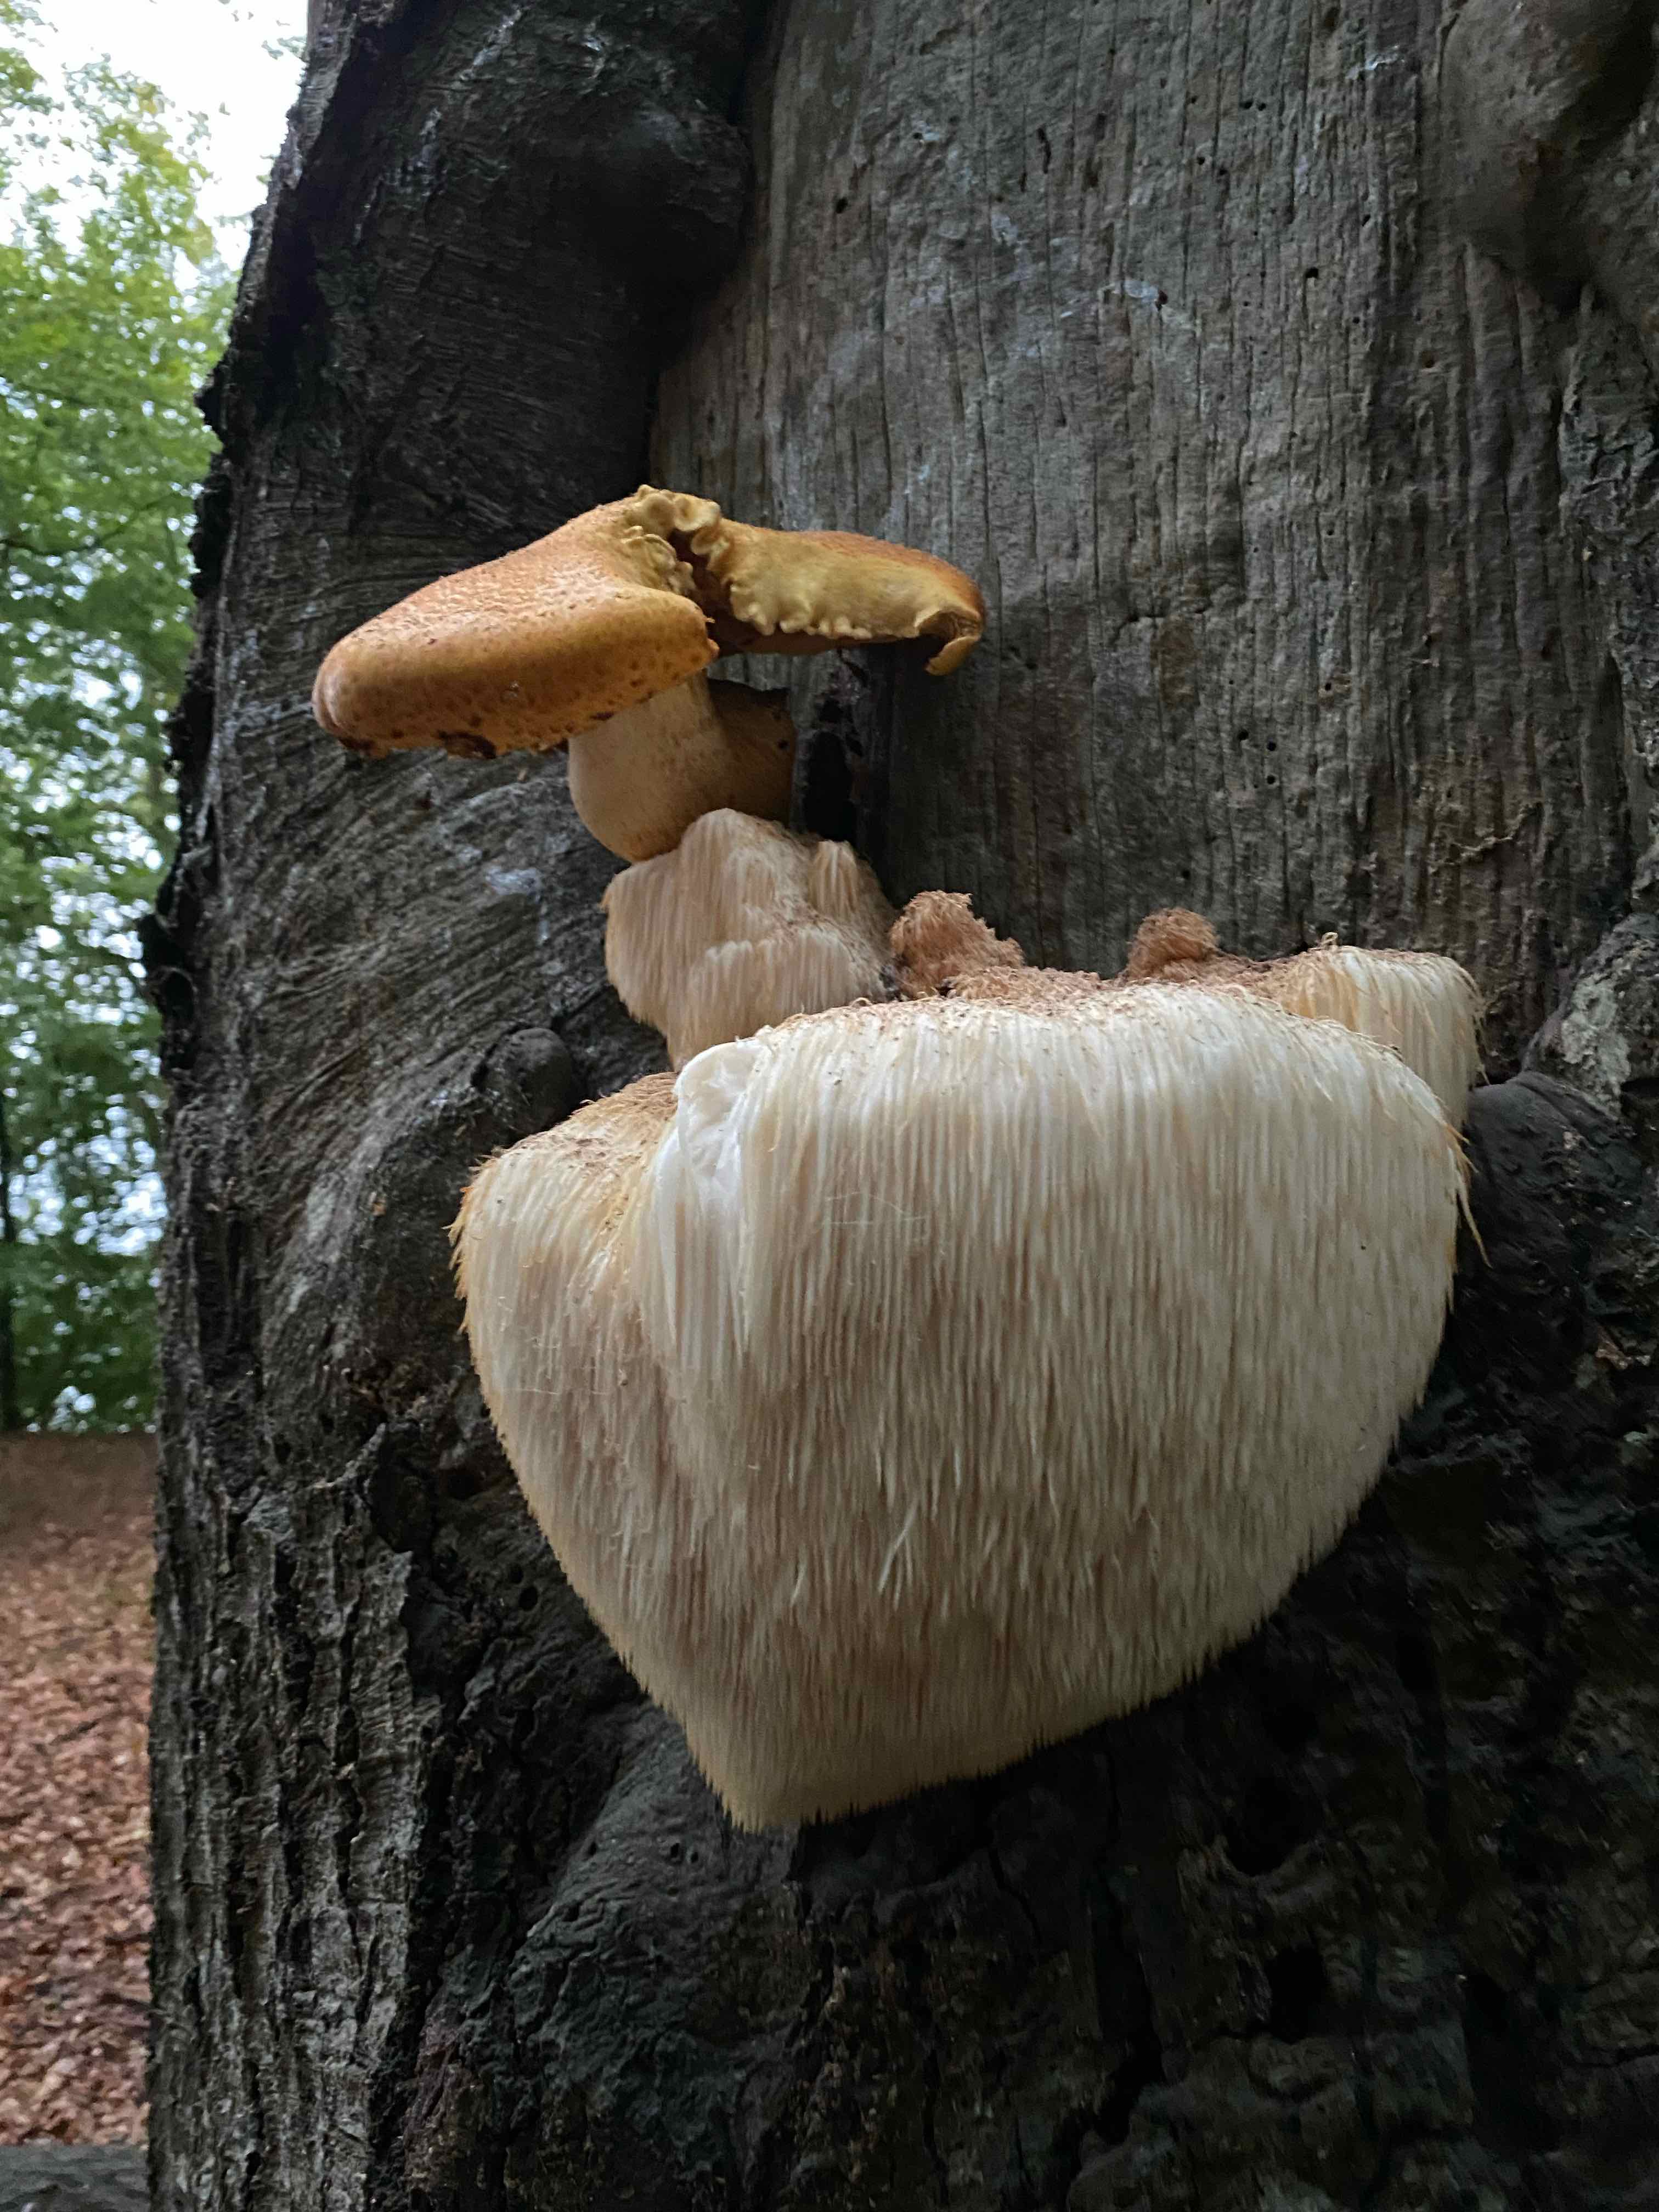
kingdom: Fungi
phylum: Basidiomycota
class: Agaricomycetes
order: Russulales
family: Hericiaceae
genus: Hericium
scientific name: Hericium erinaceus
